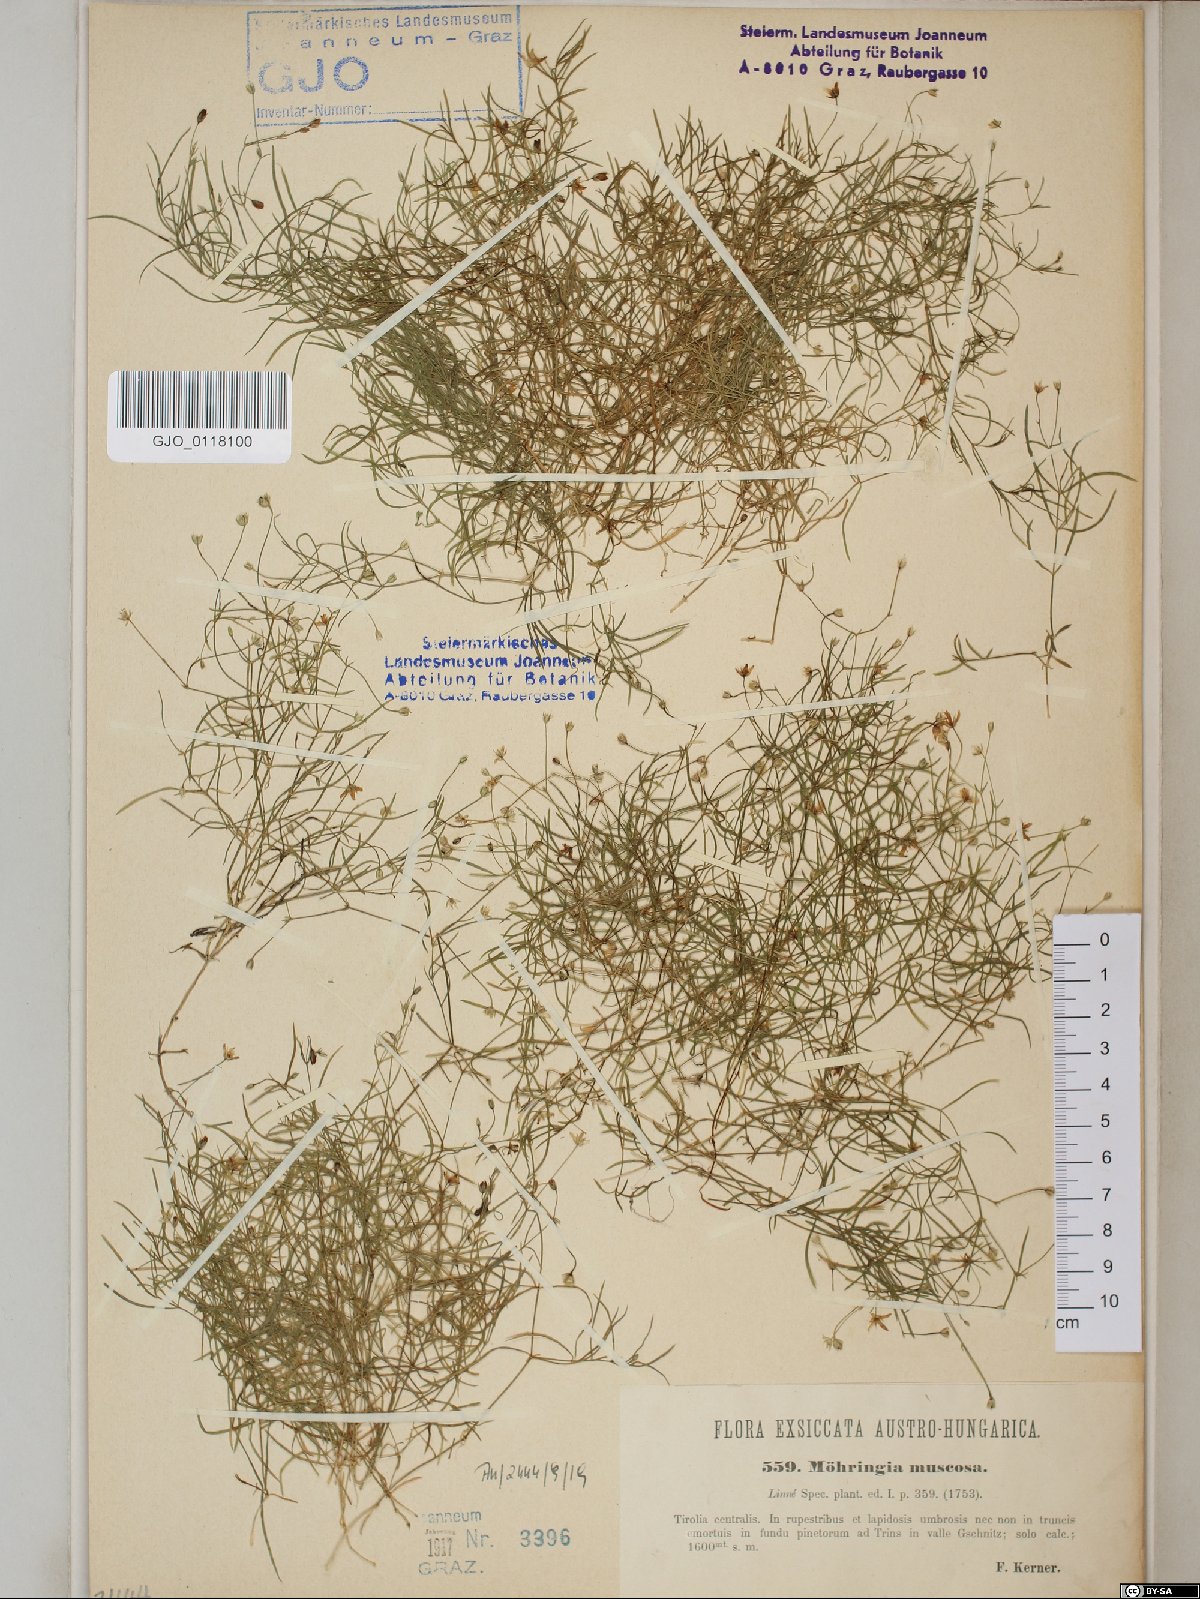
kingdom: Plantae
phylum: Tracheophyta
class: Magnoliopsida
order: Caryophyllales
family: Caryophyllaceae
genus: Moehringia
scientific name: Moehringia muscosa
